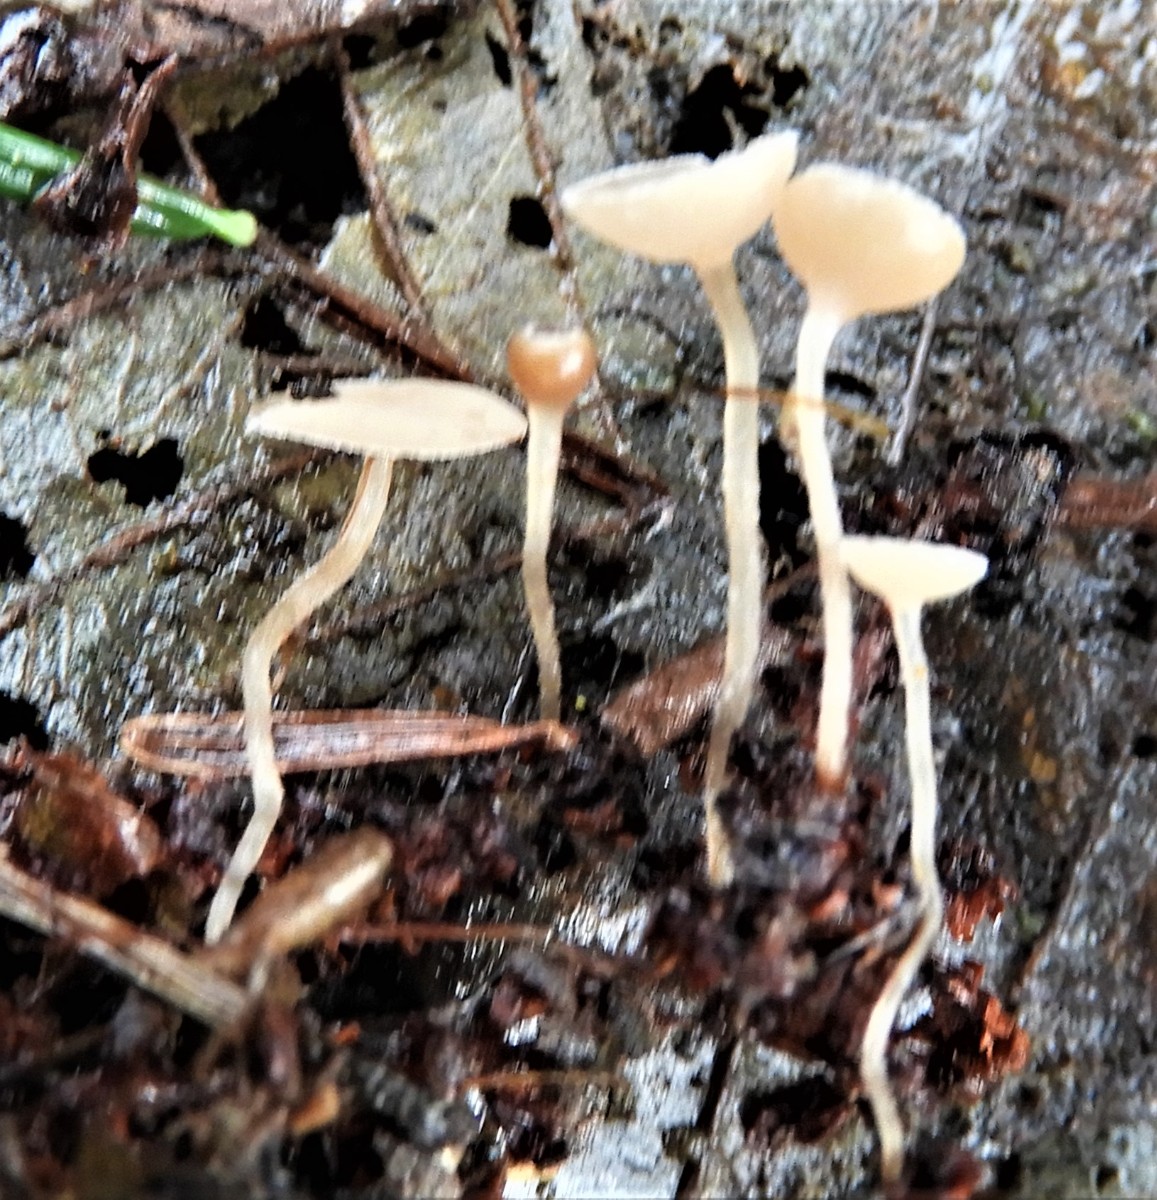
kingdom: Fungi
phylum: Ascomycota
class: Leotiomycetes
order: Helotiales
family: Sclerotiniaceae
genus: Ciboria
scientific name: Ciboria amentacea
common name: ellerakle-knoldskive
